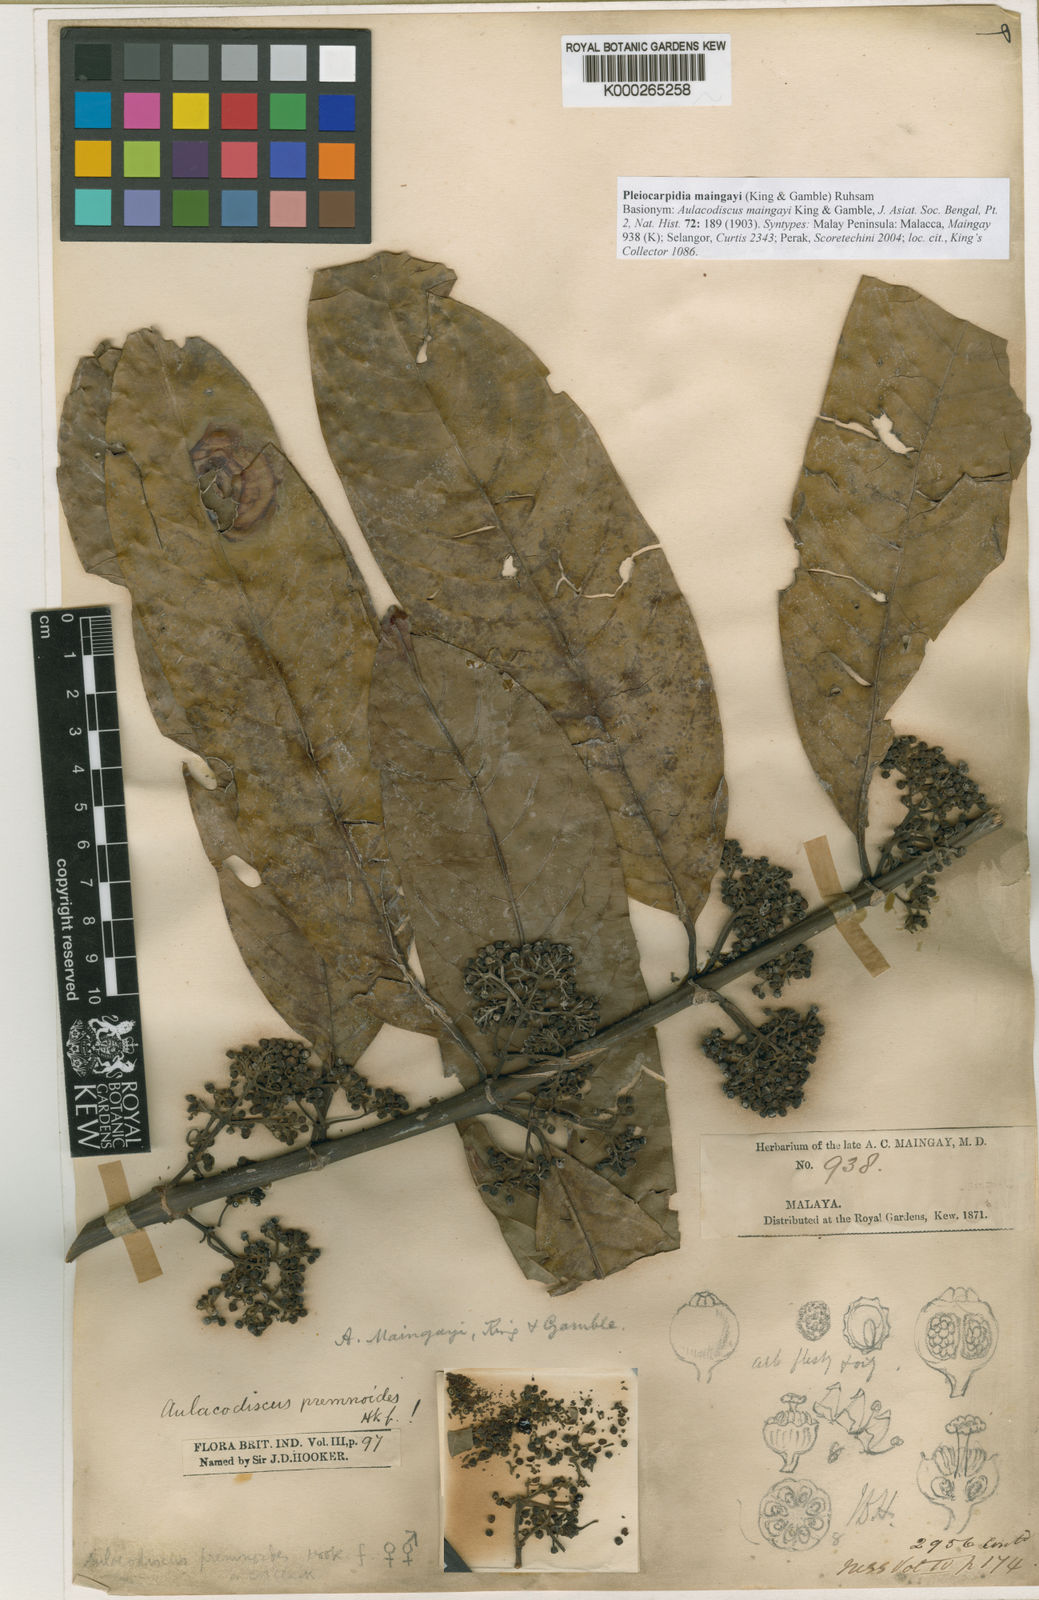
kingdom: Plantae
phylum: Tracheophyta
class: Magnoliopsida
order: Gentianales
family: Rubiaceae
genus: Urophyllum
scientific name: Urophyllum maingayi
